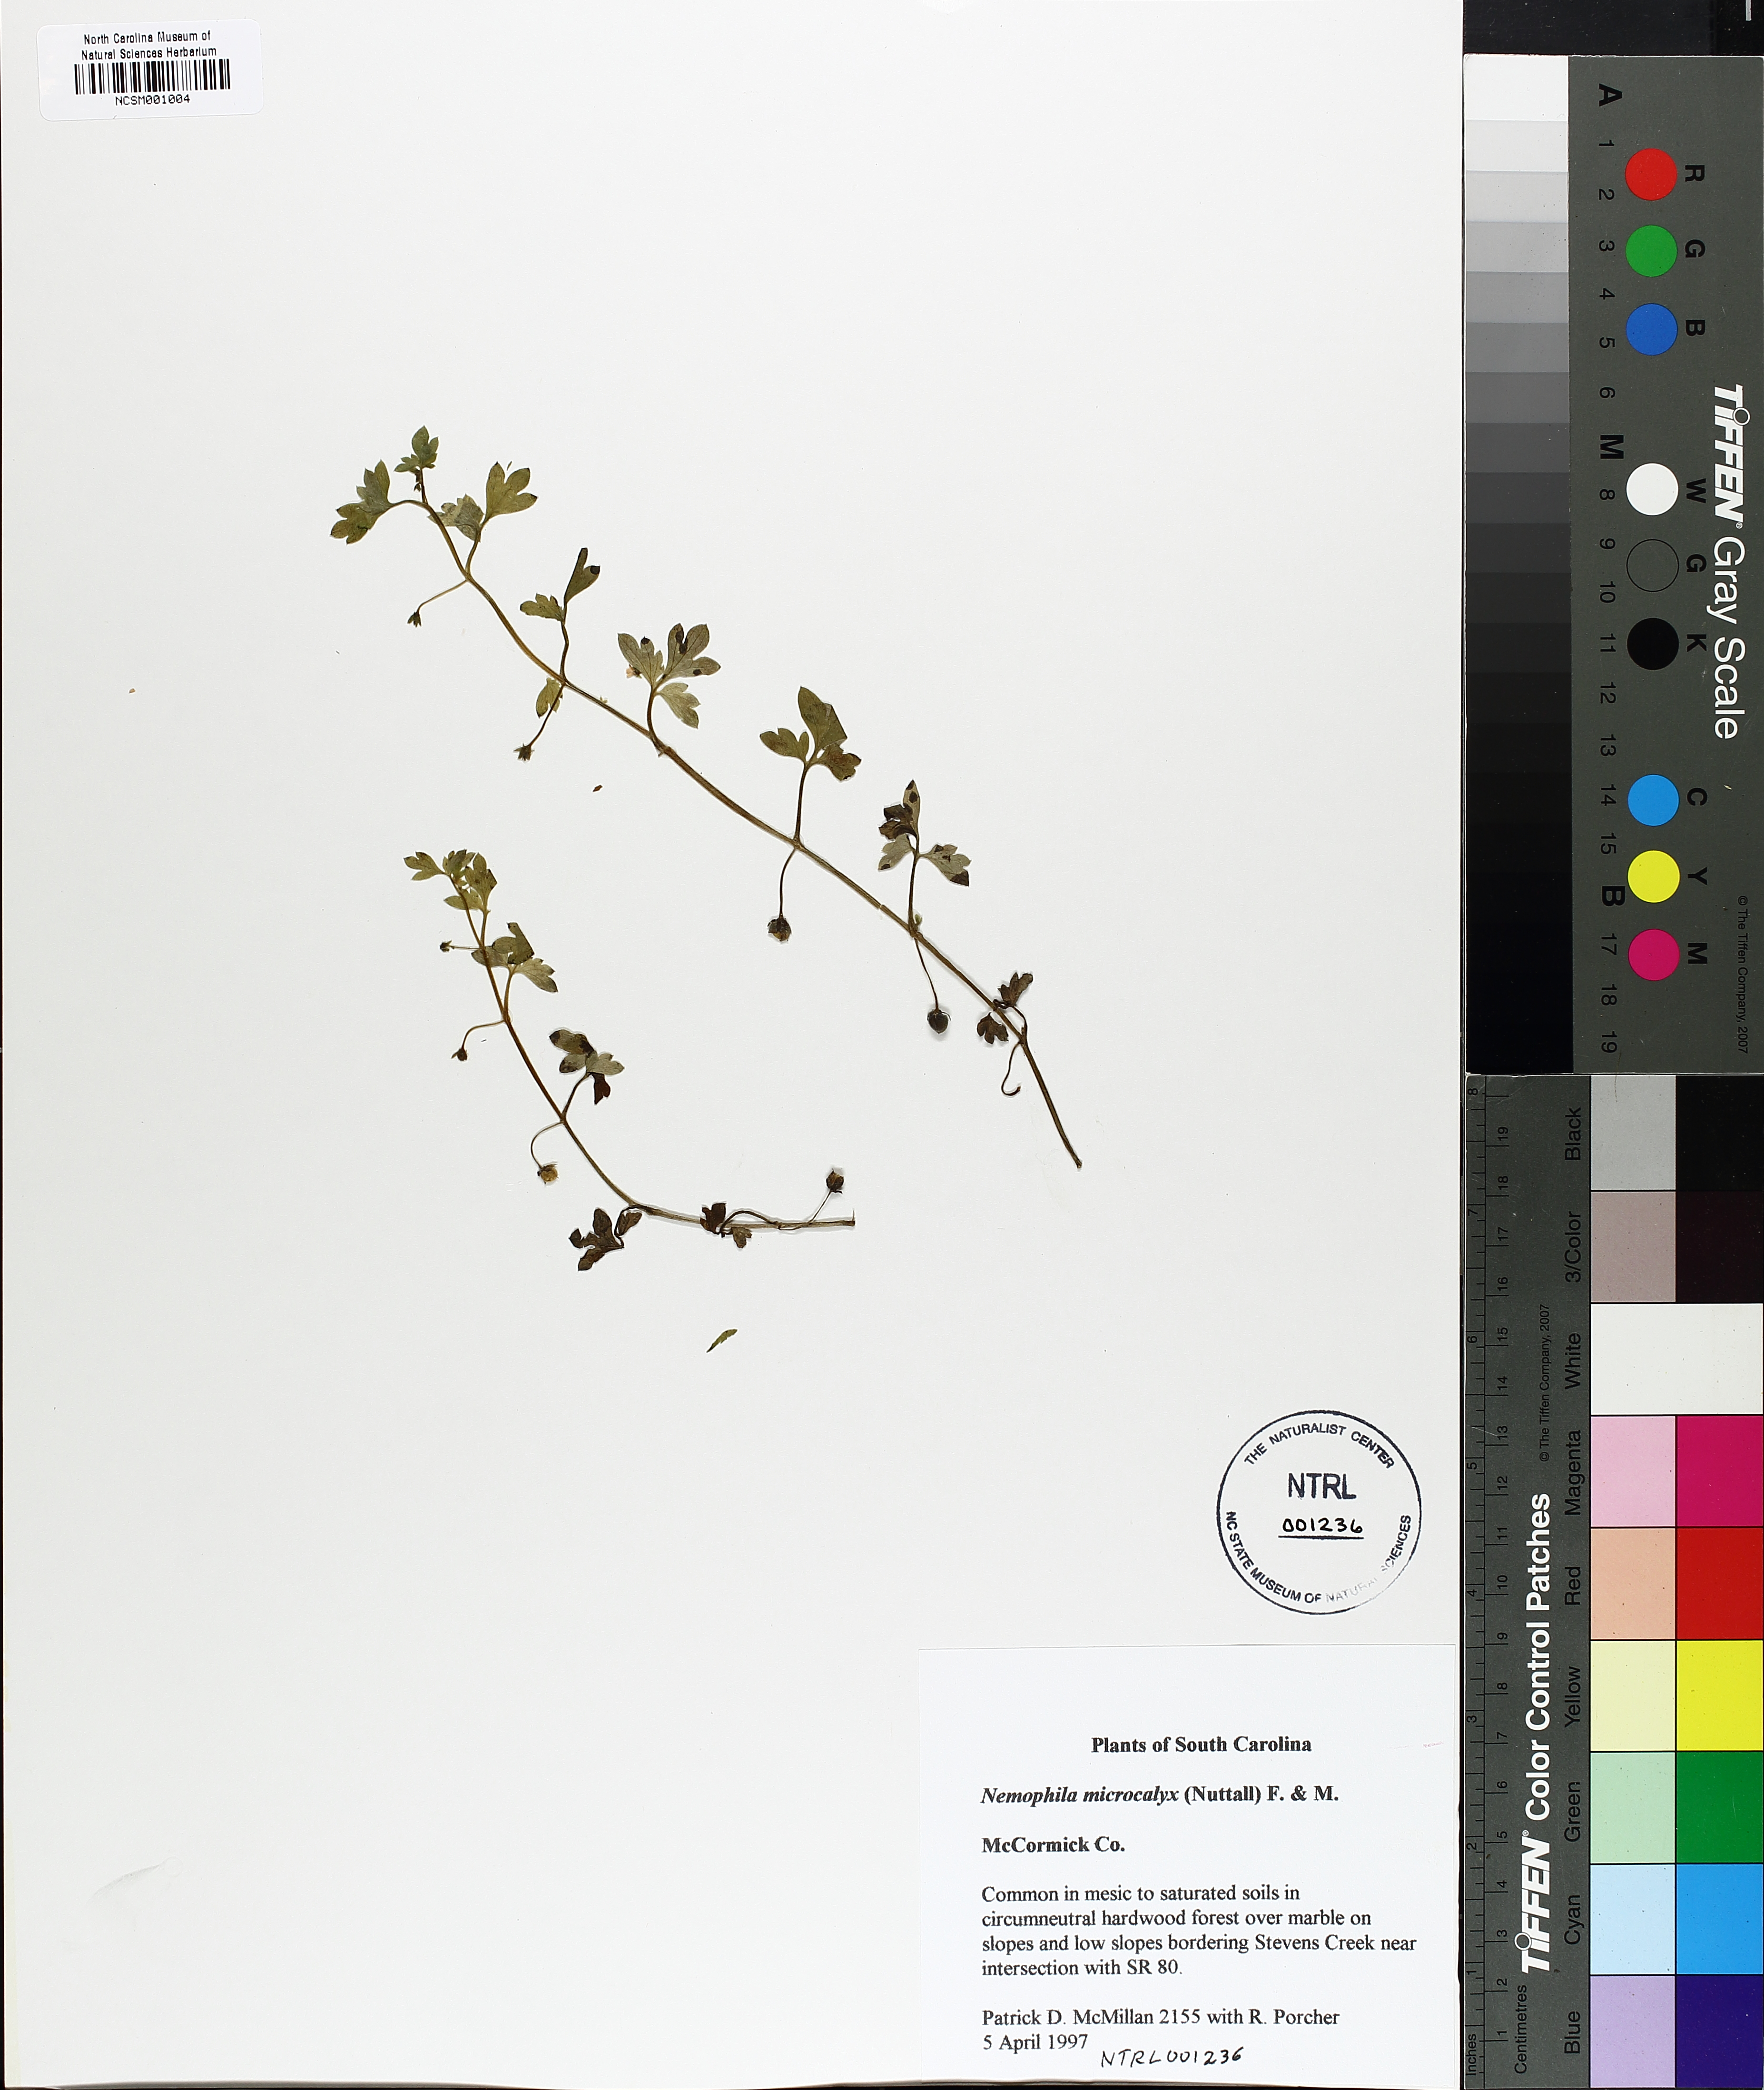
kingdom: Plantae
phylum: Tracheophyta
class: Magnoliopsida
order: Boraginales
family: Hydrophyllaceae
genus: Nemophila
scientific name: Nemophila aphylla
